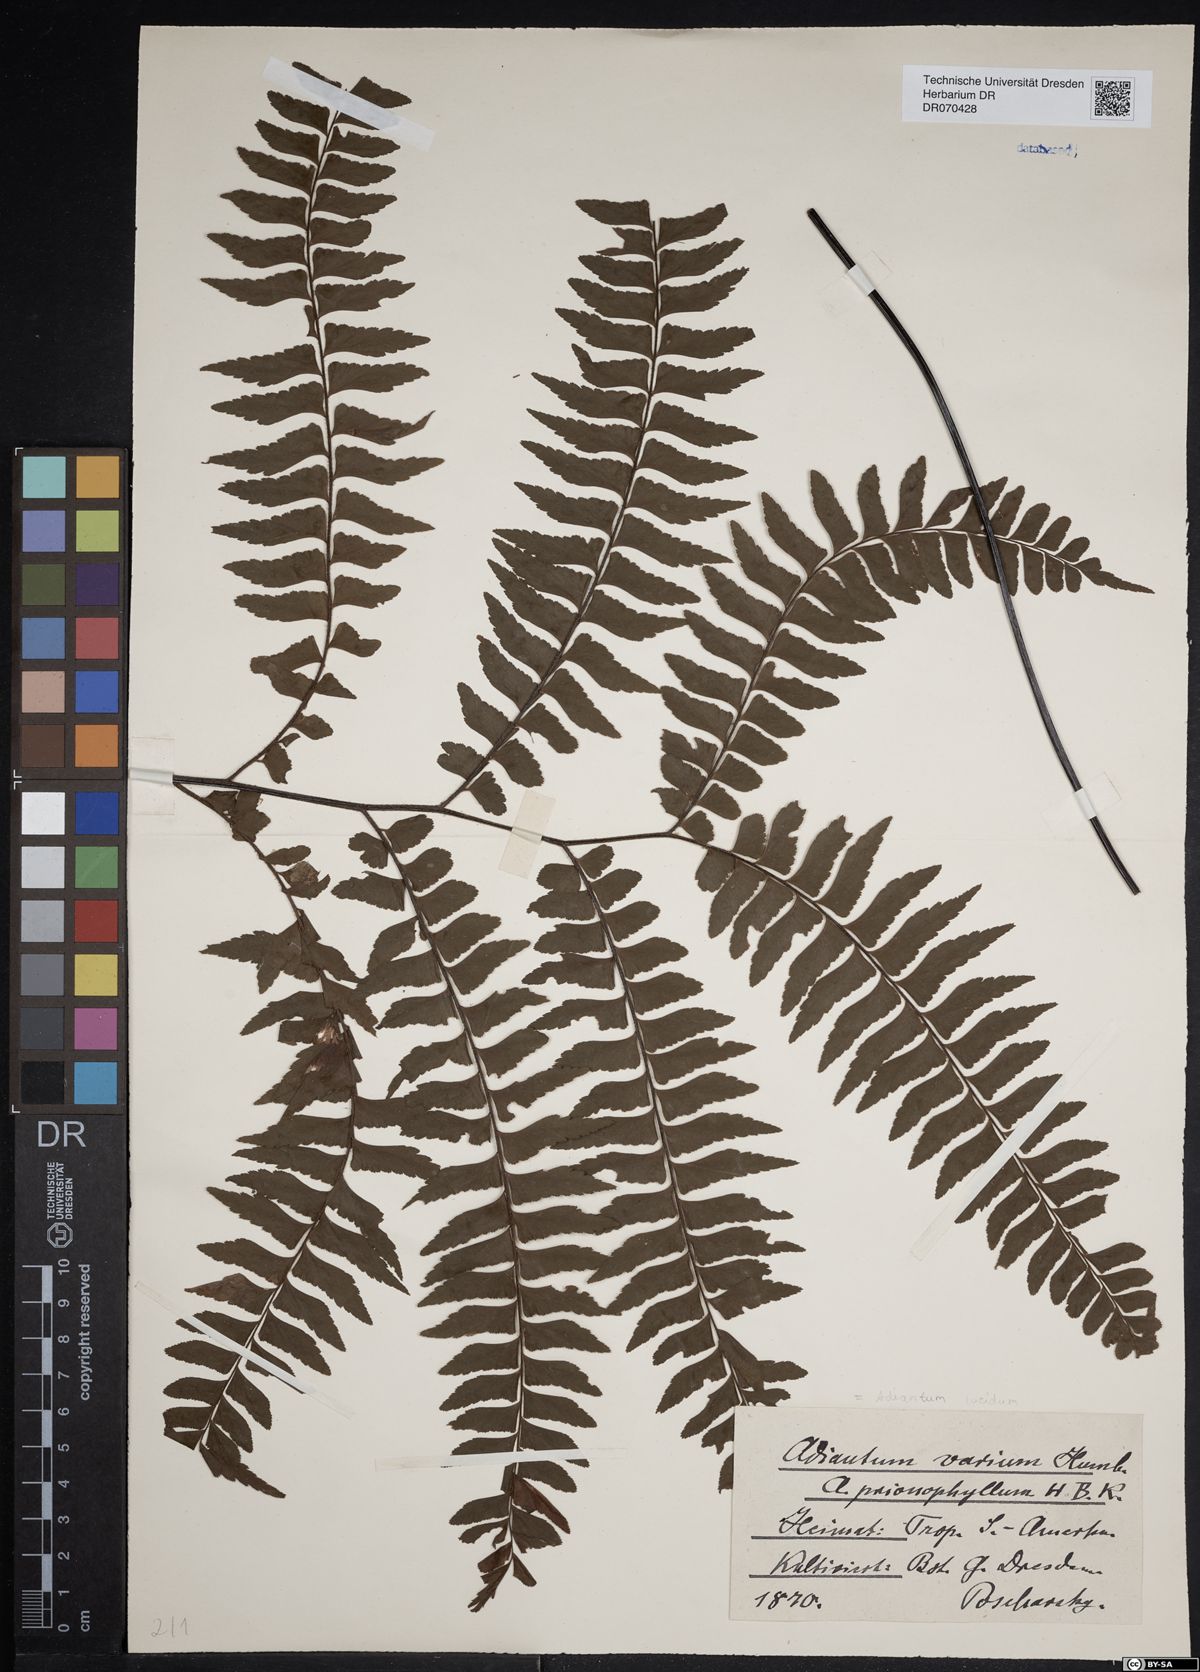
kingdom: Plantae
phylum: Tracheophyta
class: Polypodiopsida
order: Polypodiales
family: Pteridaceae
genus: Adiantum
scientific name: Adiantum lucidum
